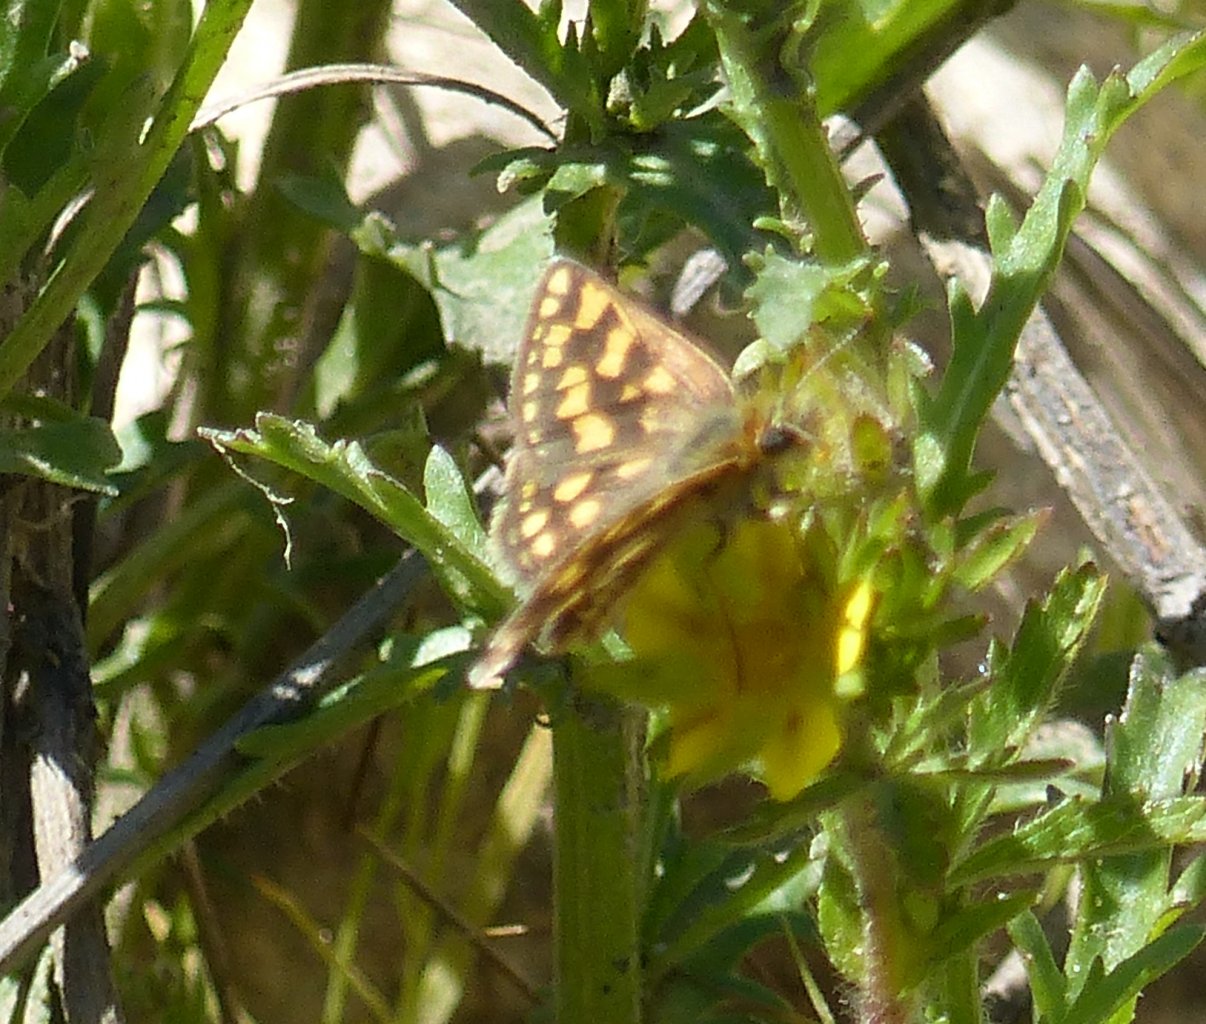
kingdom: Animalia
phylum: Arthropoda
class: Insecta
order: Lepidoptera
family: Hesperiidae
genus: Carterocephalus
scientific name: Carterocephalus palaemon
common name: Chequered Skipper
